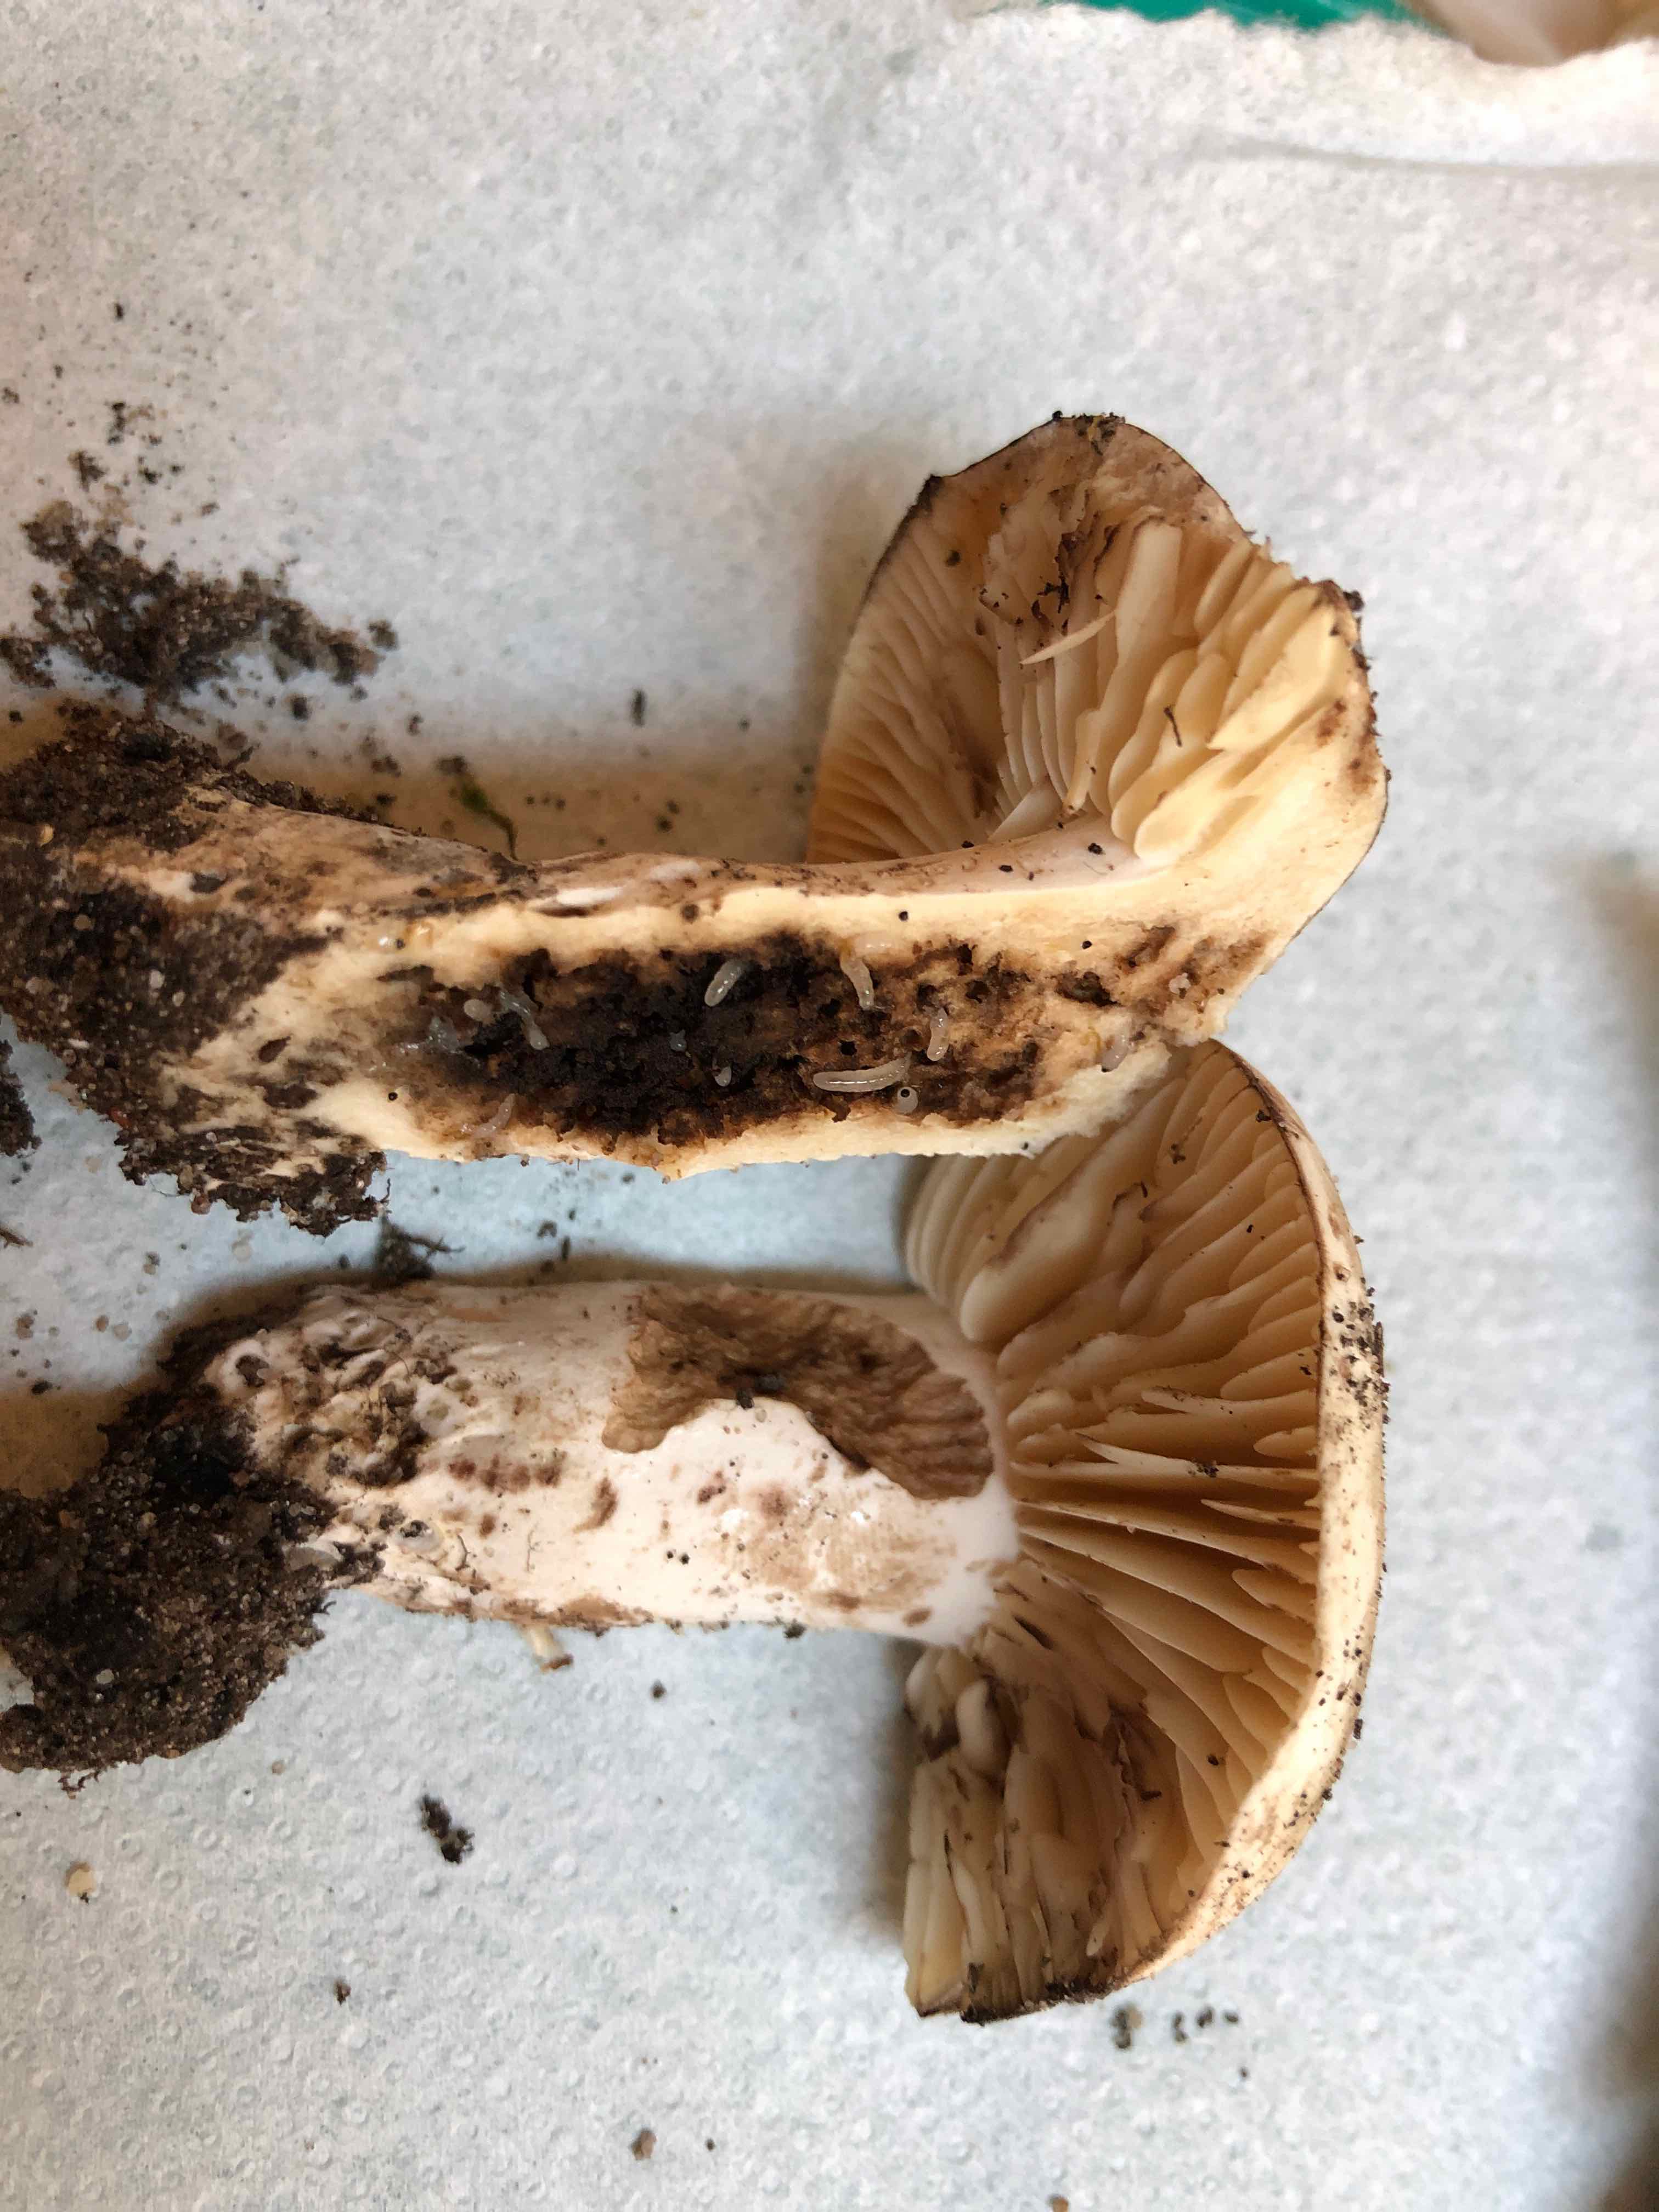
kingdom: Fungi
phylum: Basidiomycota
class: Agaricomycetes
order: Russulales
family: Russulaceae
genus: Russula
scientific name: Russula adusta
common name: sværtende skørhat
